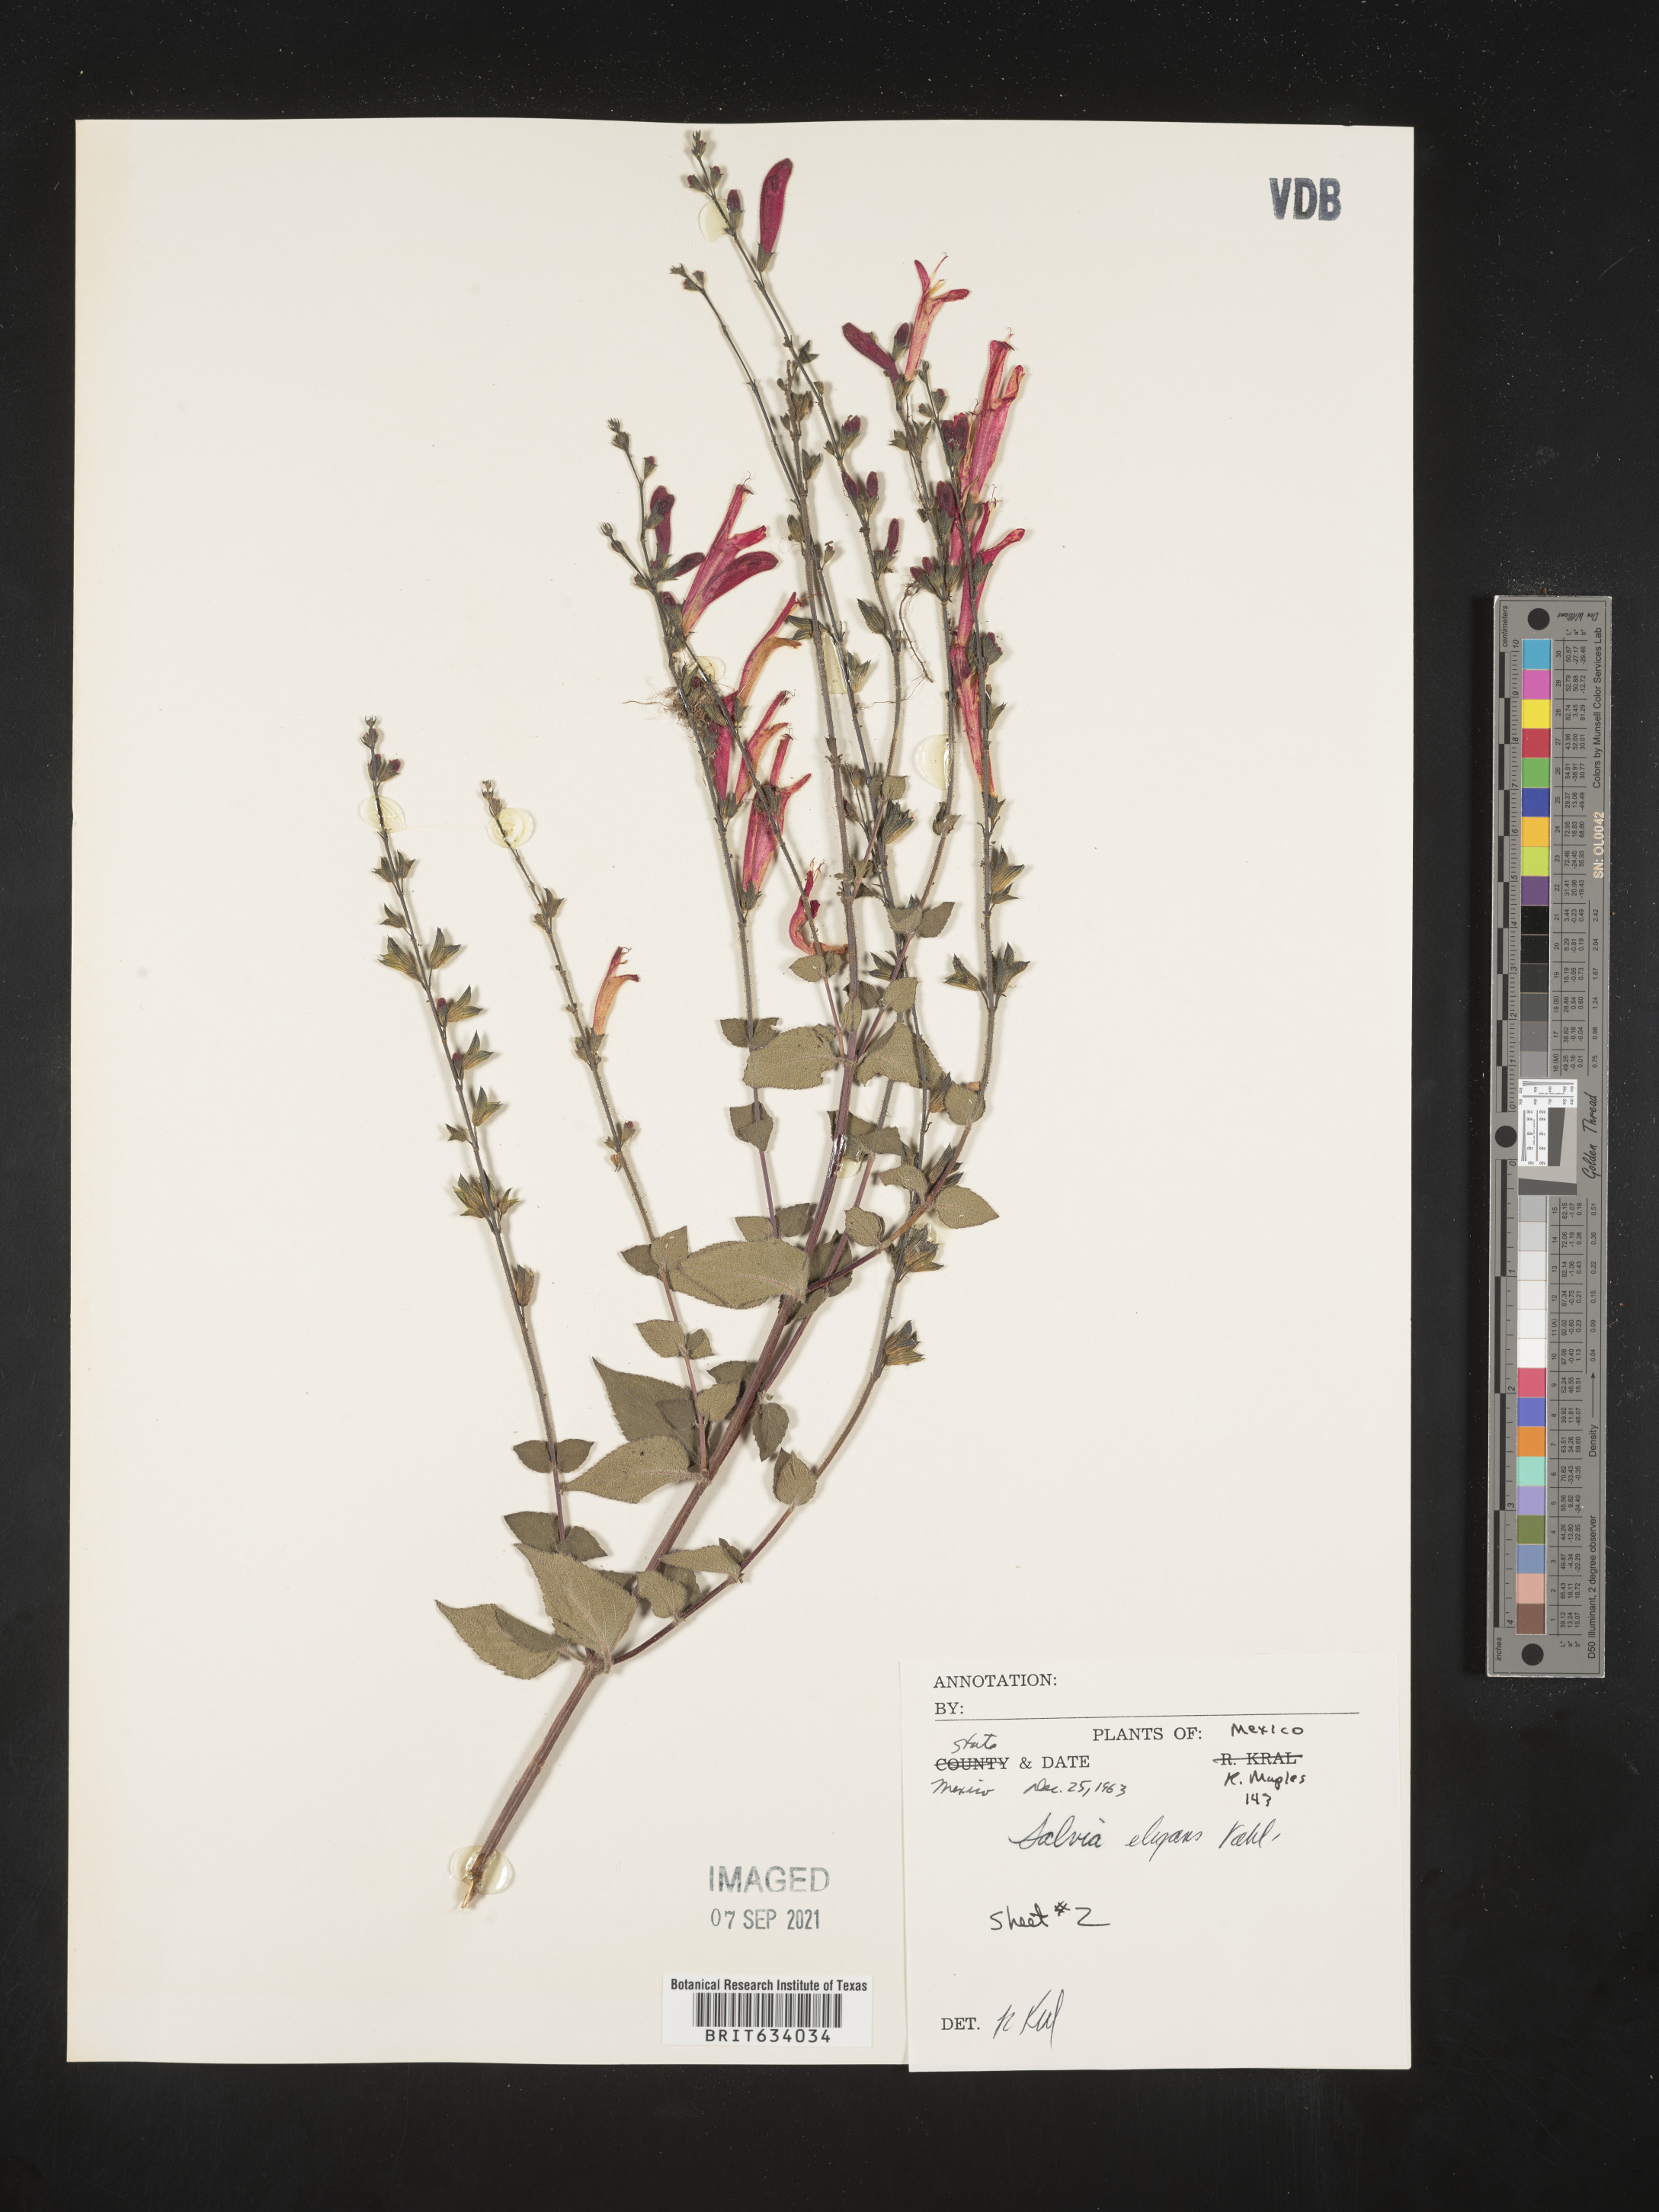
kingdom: Plantae
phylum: Tracheophyta
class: Magnoliopsida
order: Lamiales
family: Lamiaceae
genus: Salvia
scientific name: Salvia
